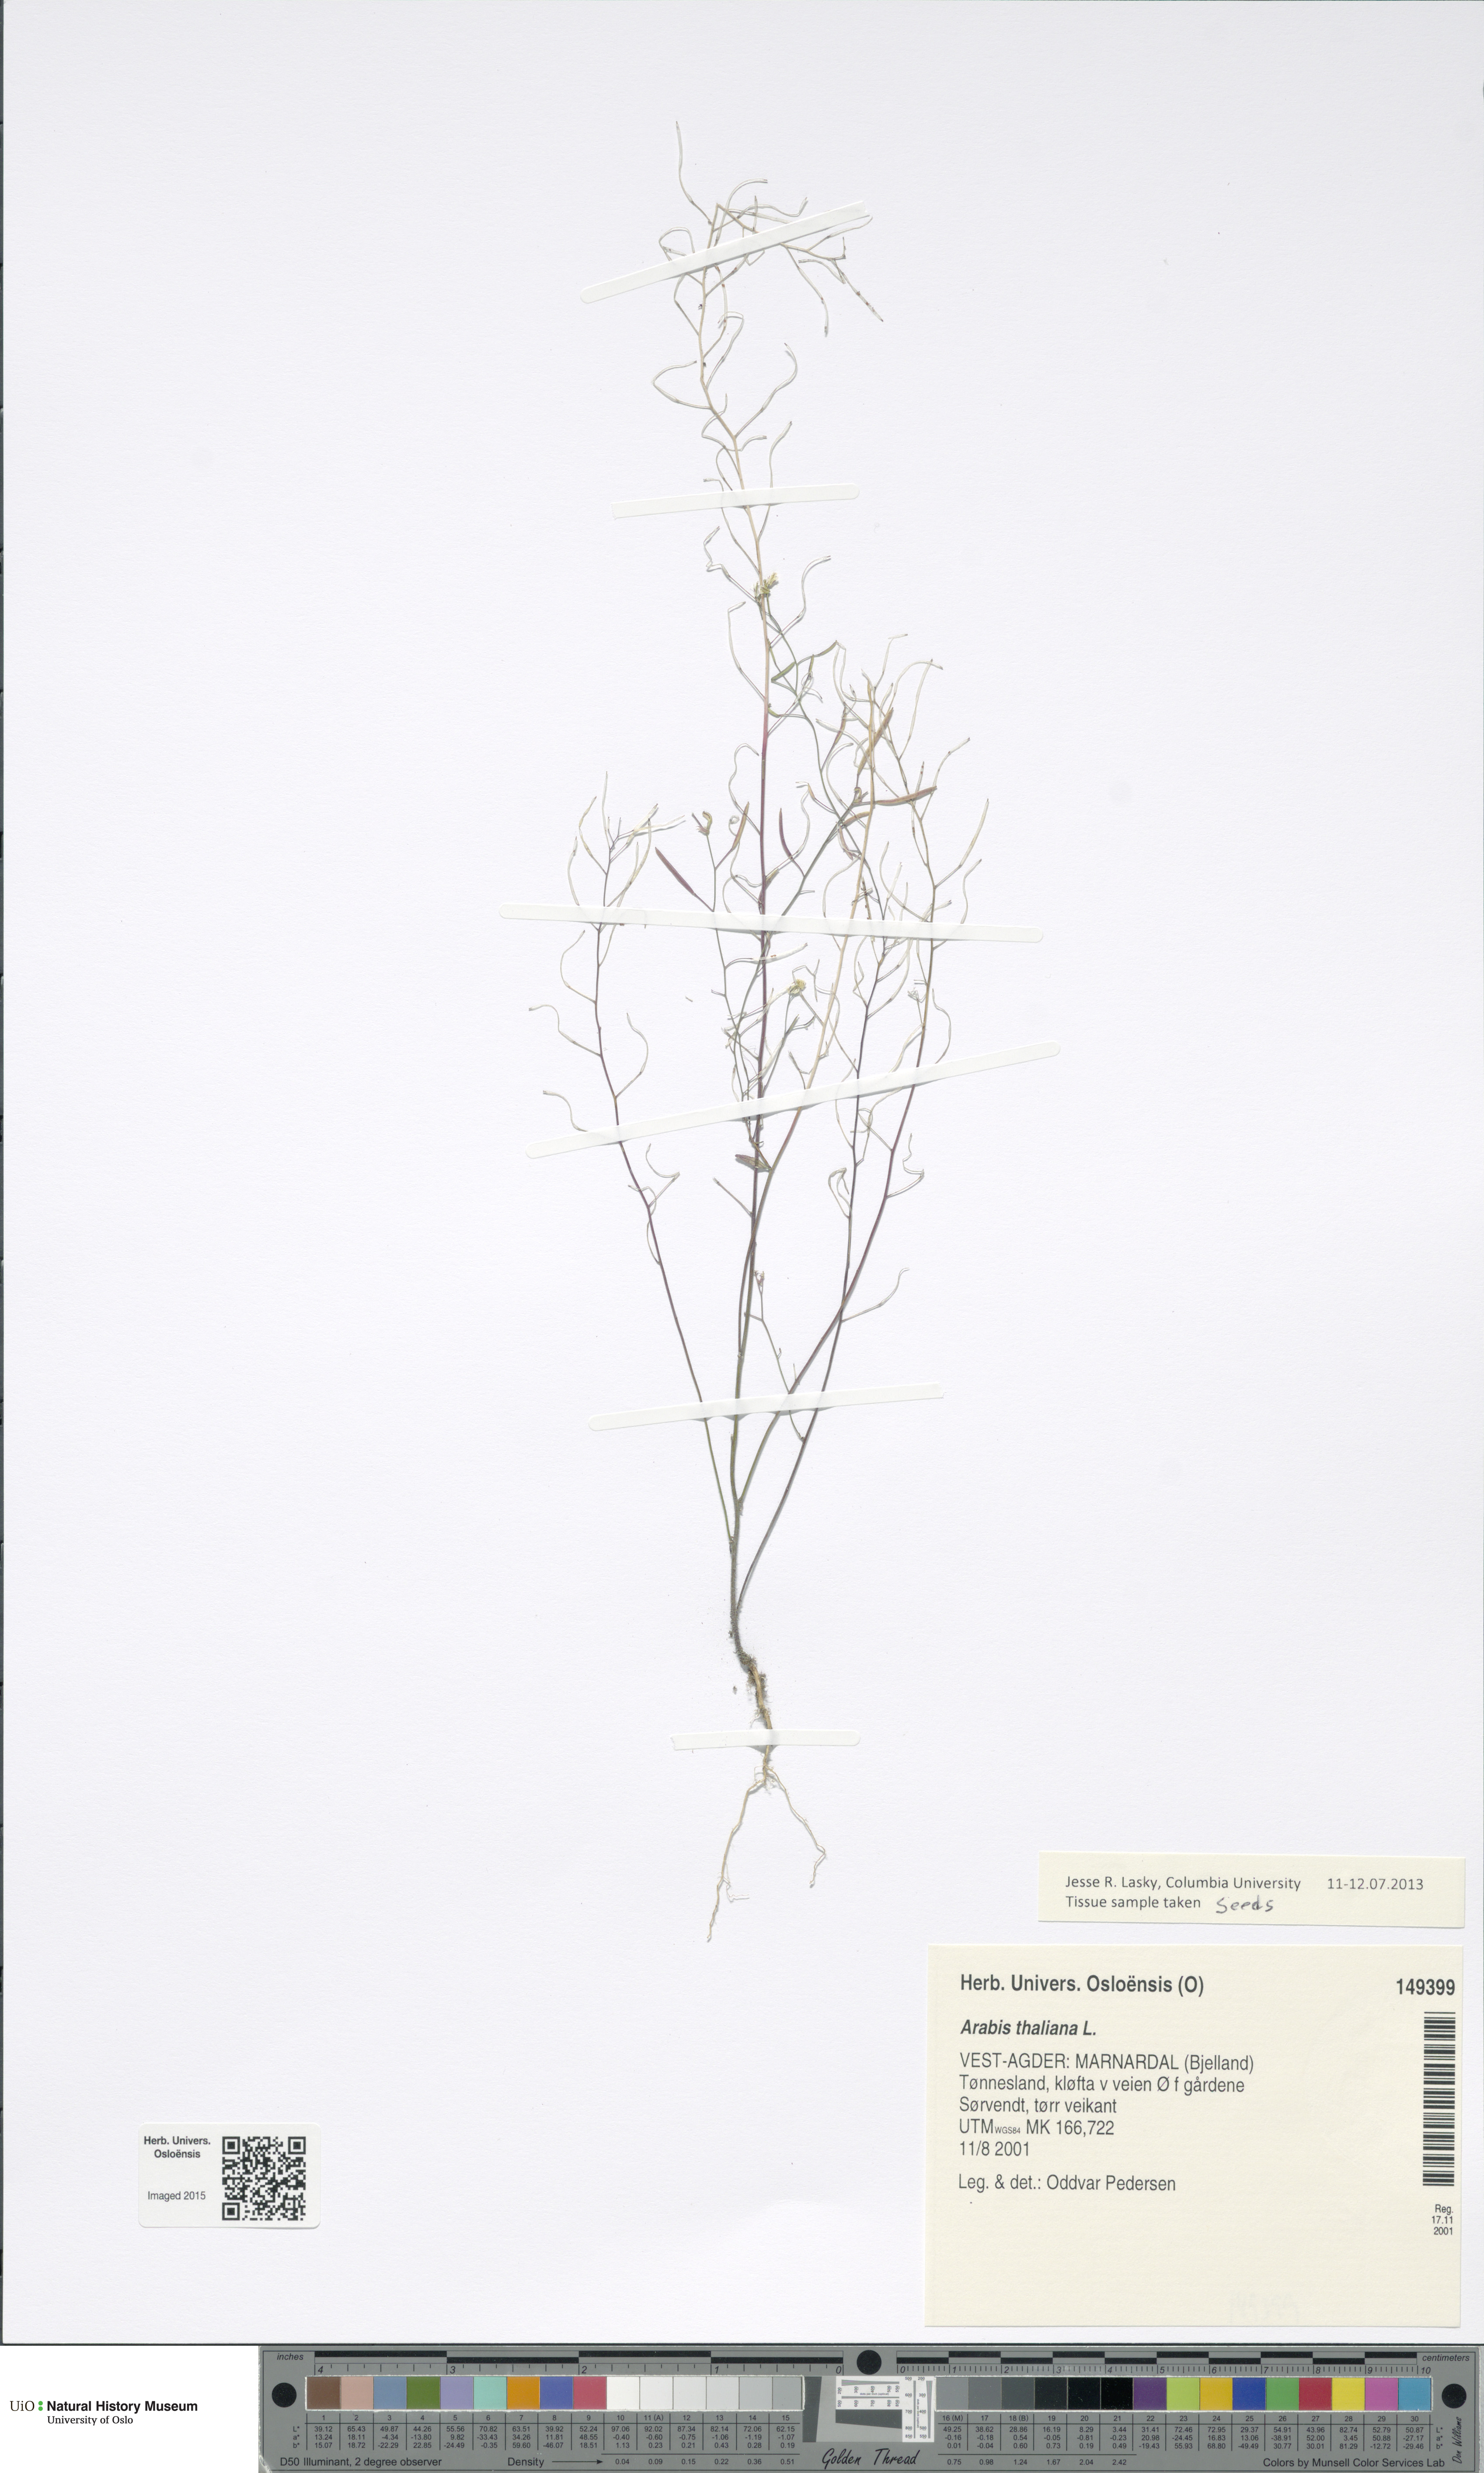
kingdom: Plantae
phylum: Tracheophyta
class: Magnoliopsida
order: Brassicales
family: Brassicaceae
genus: Arabidopsis
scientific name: Arabidopsis thaliana
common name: Thale cress
